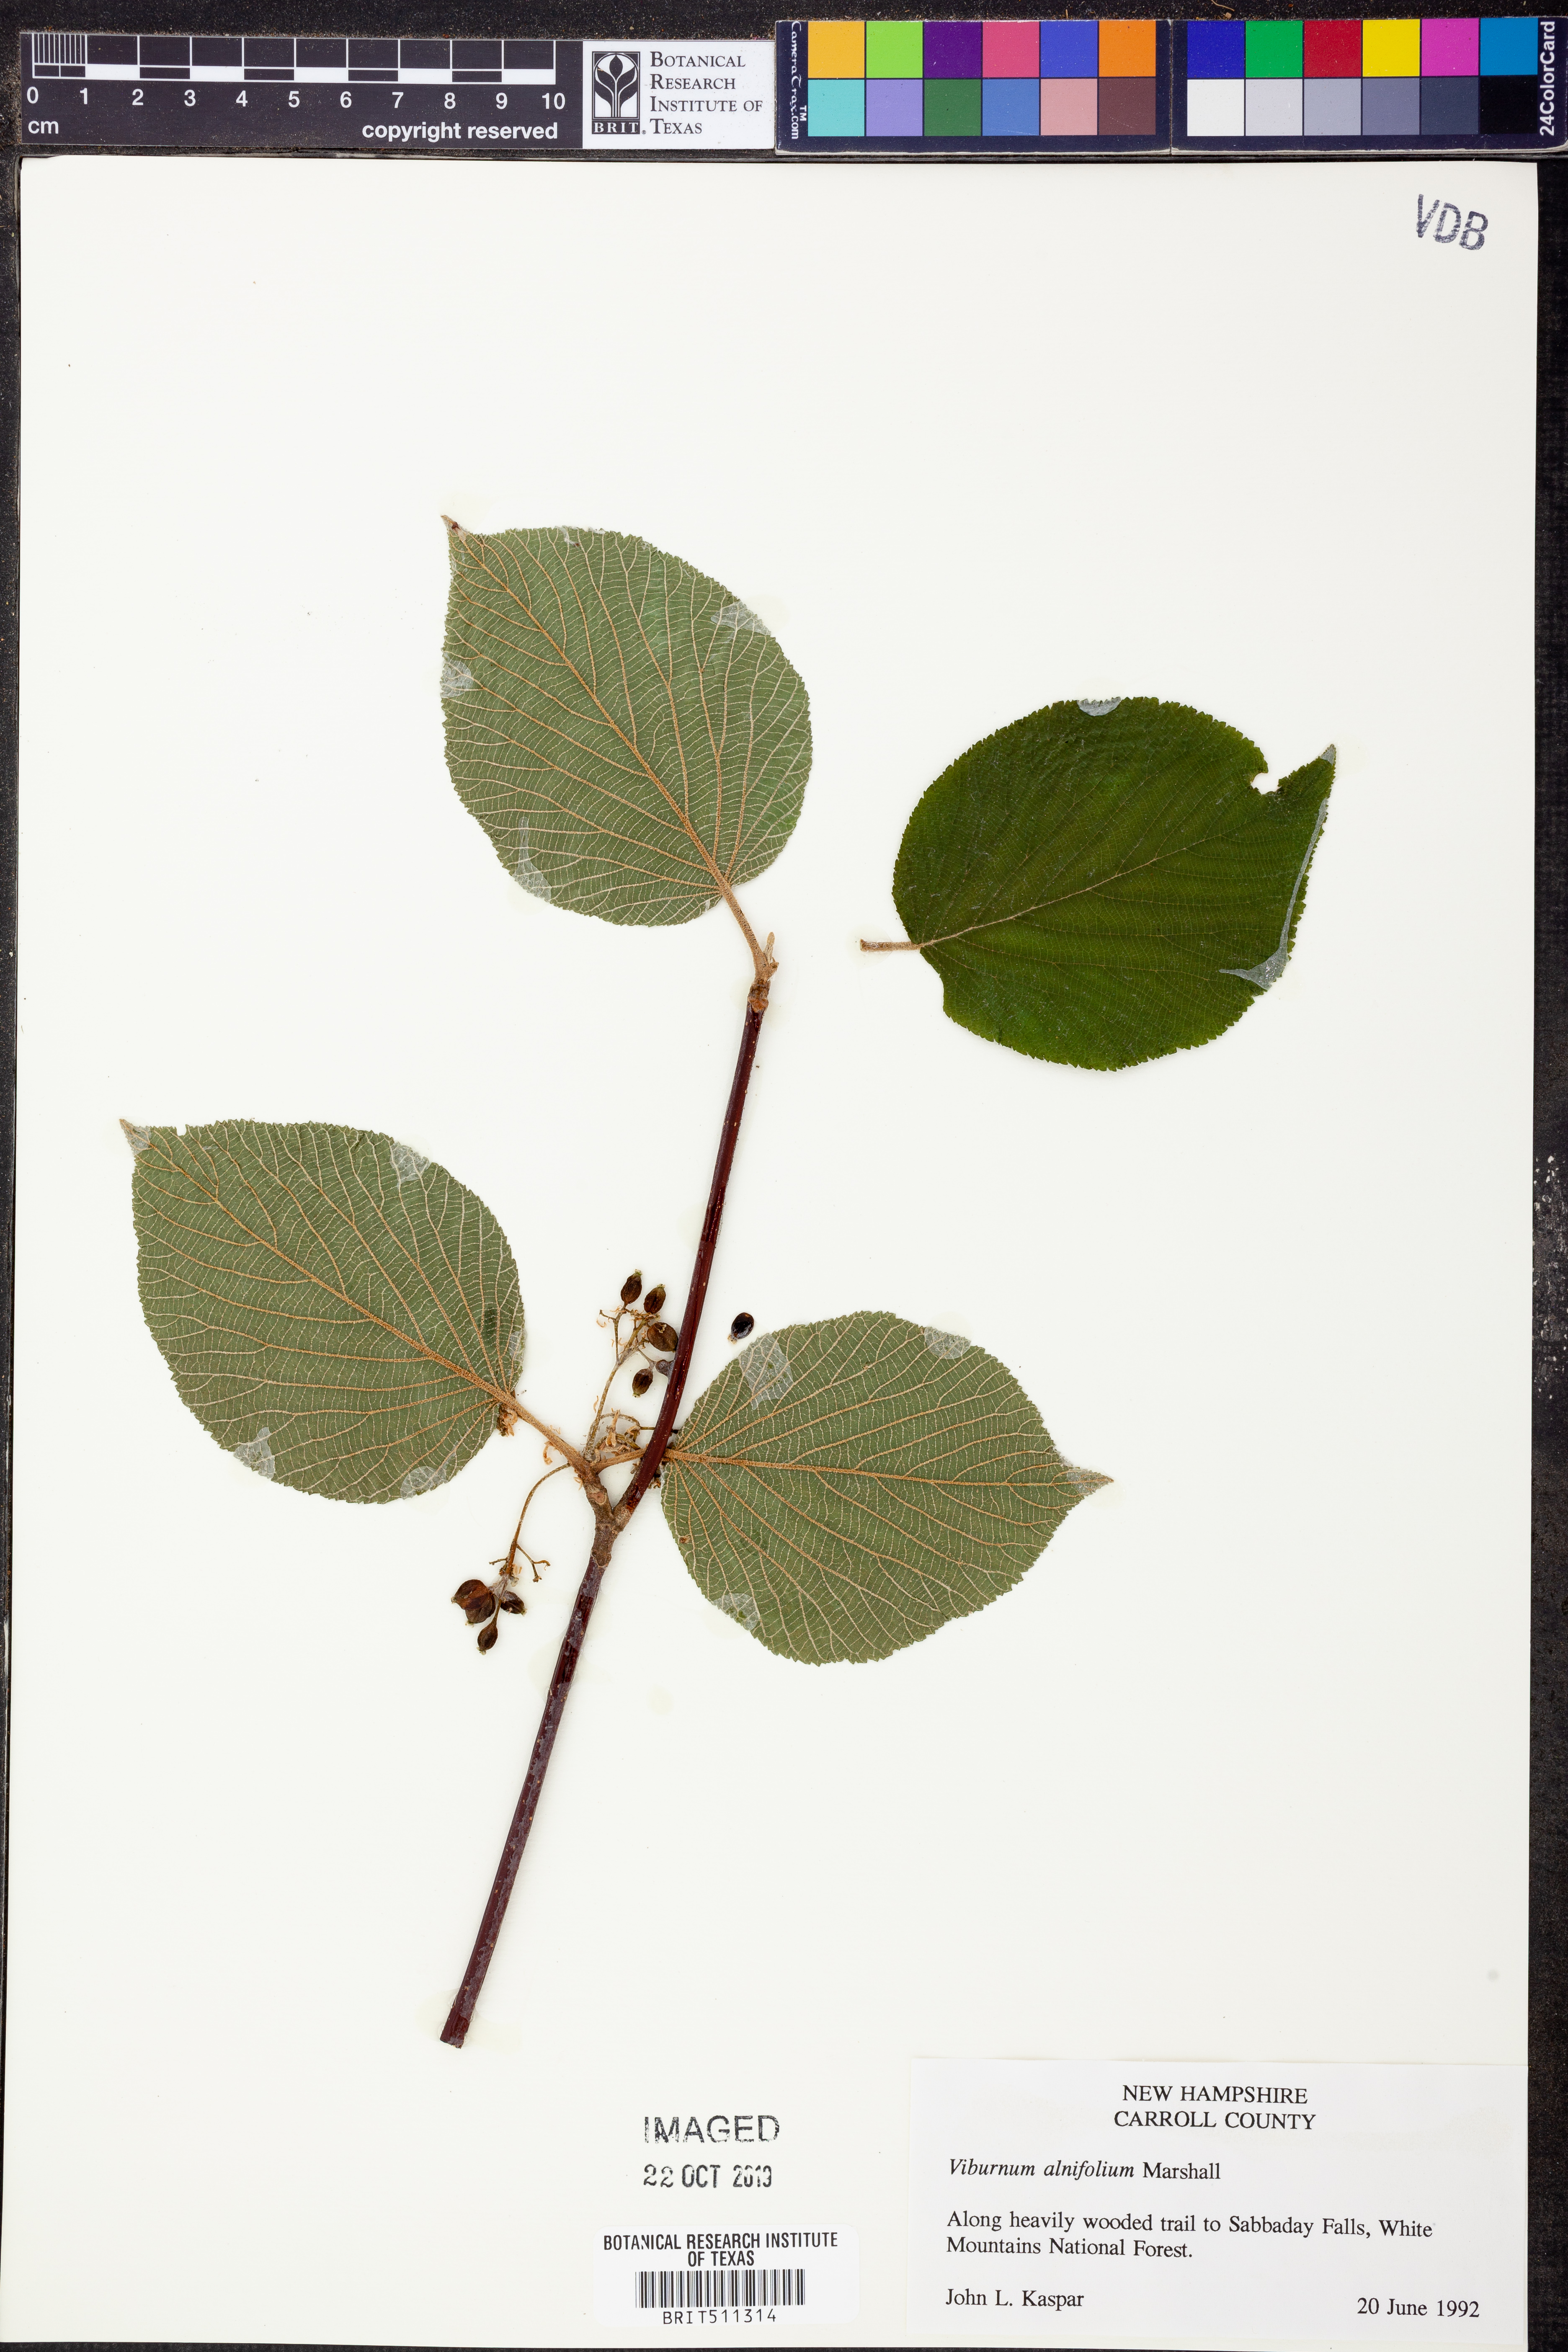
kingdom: Plantae
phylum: Tracheophyta
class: Magnoliopsida
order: Dipsacales
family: Viburnaceae
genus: Viburnum
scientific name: Viburnum lantanoides
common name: Hobblebush
